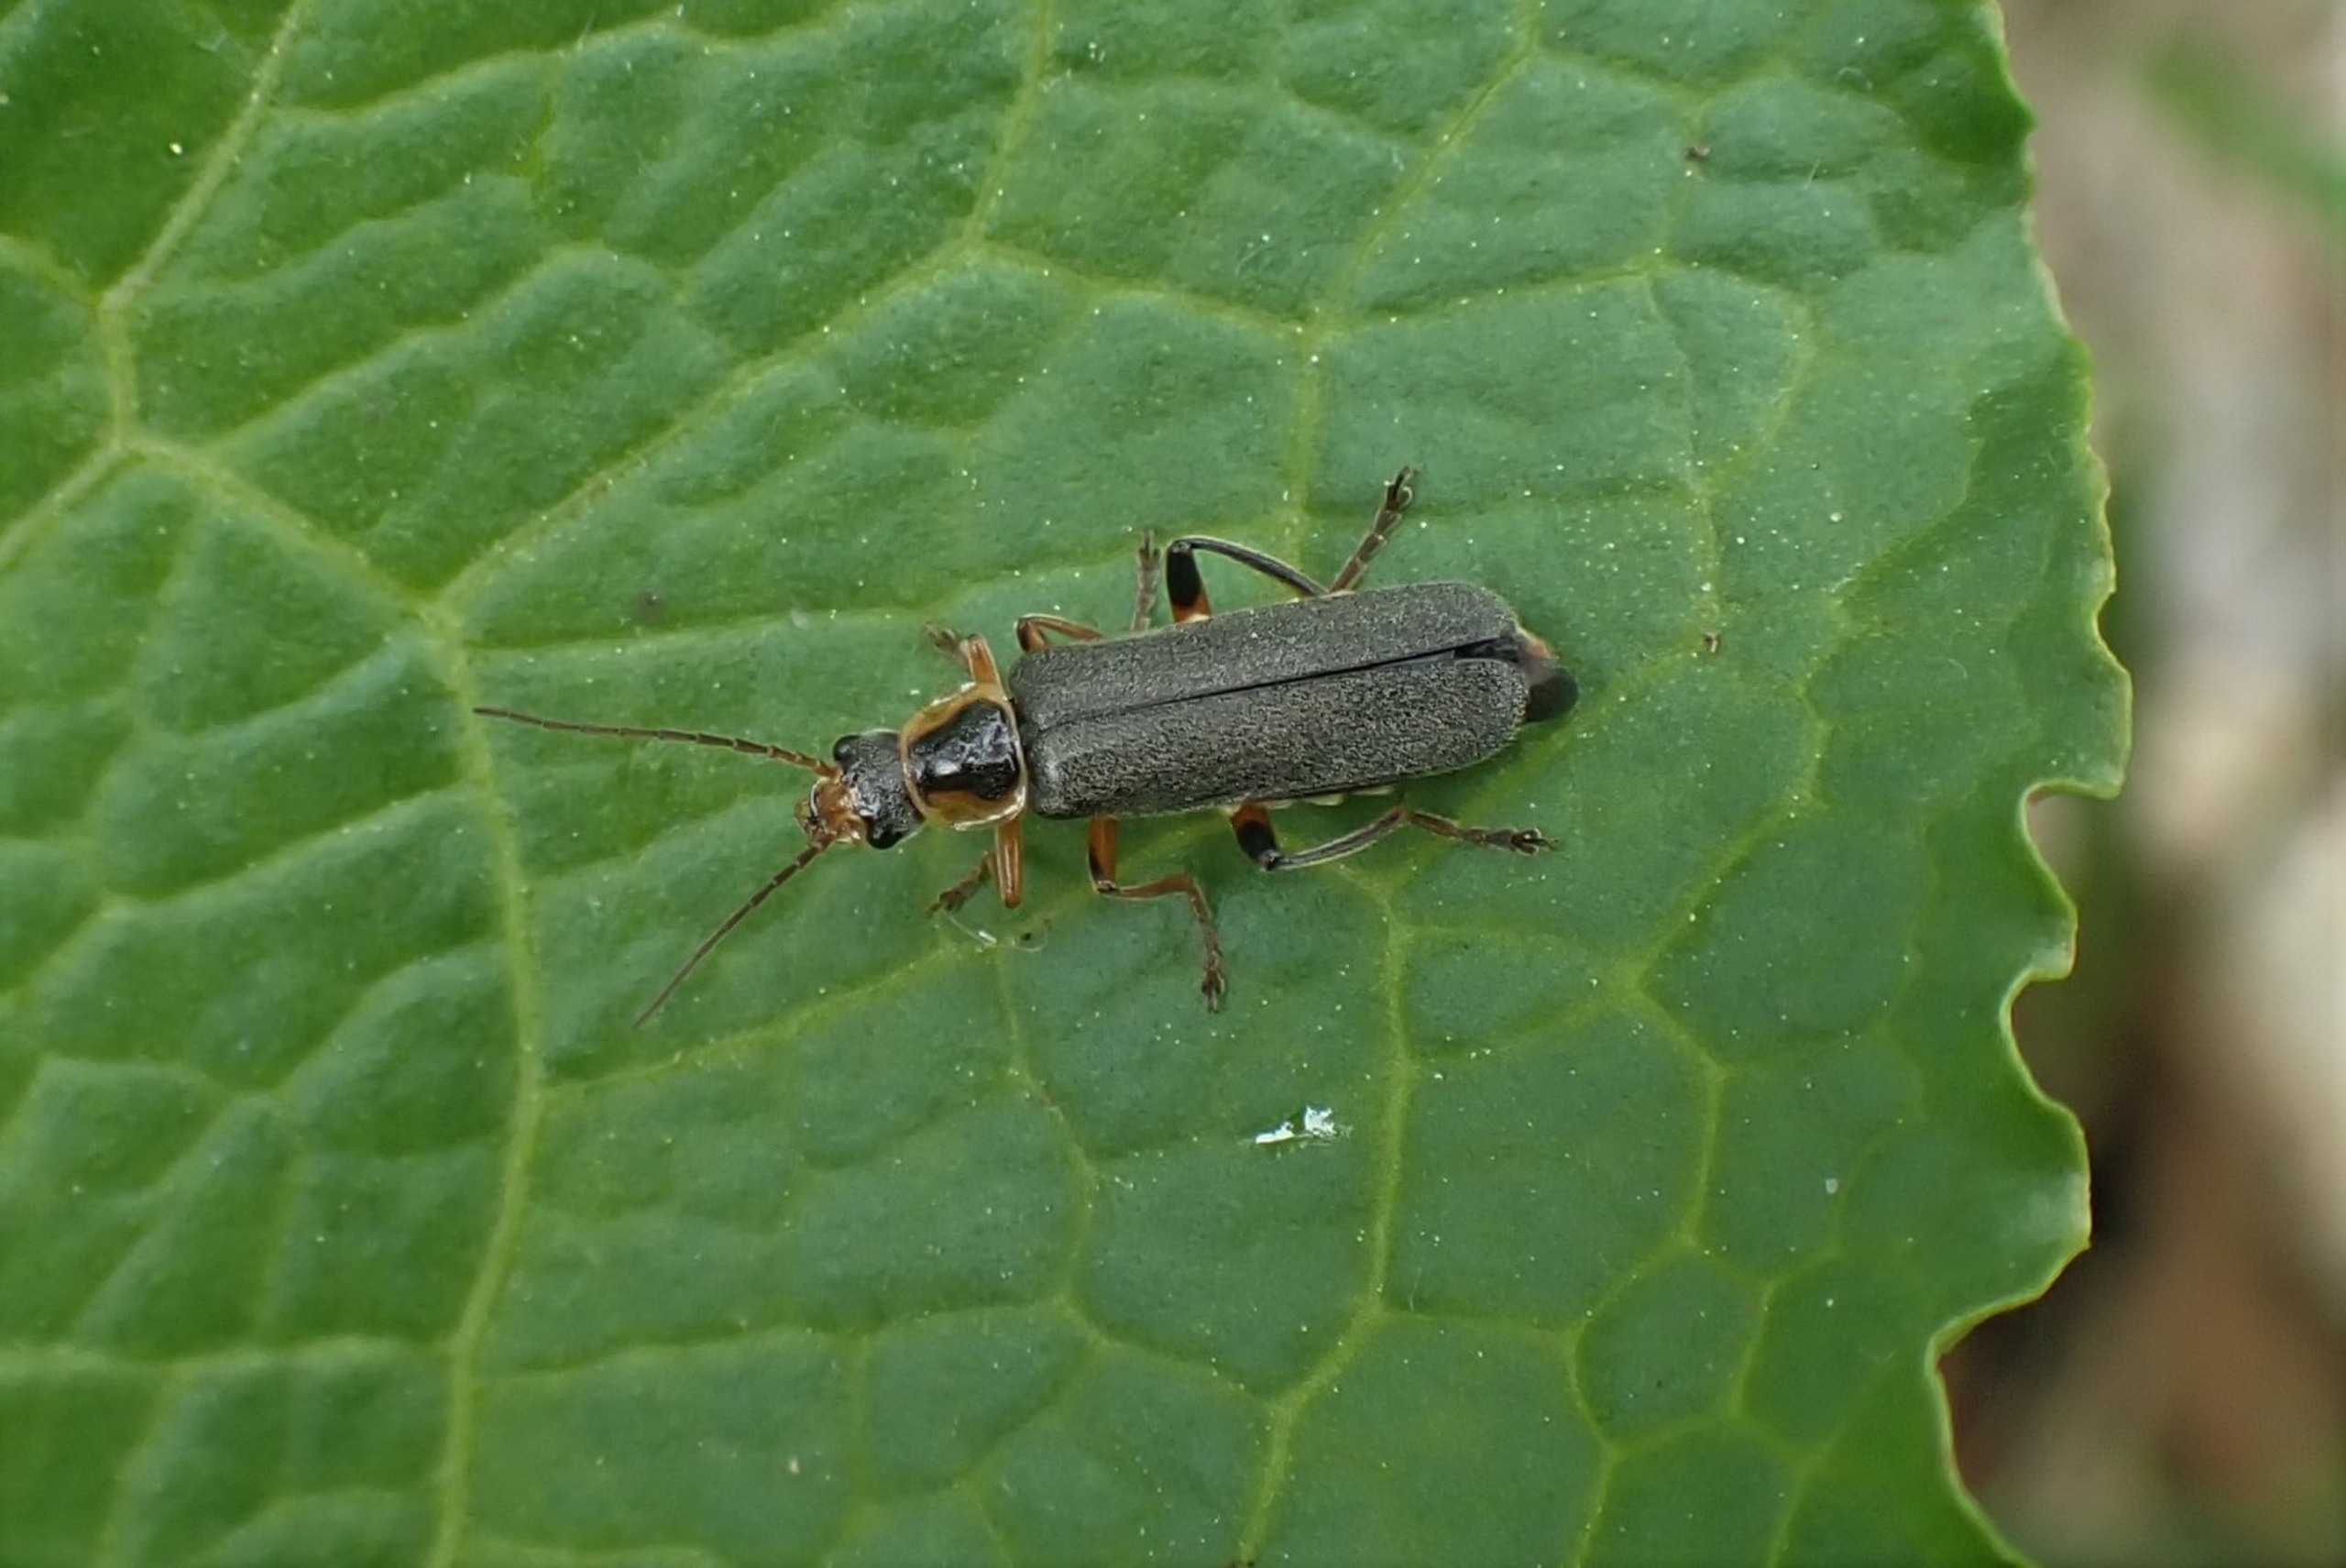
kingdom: Animalia
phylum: Arthropoda
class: Insecta
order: Coleoptera
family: Cantharidae
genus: Cantharis
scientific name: Cantharis nigricans
